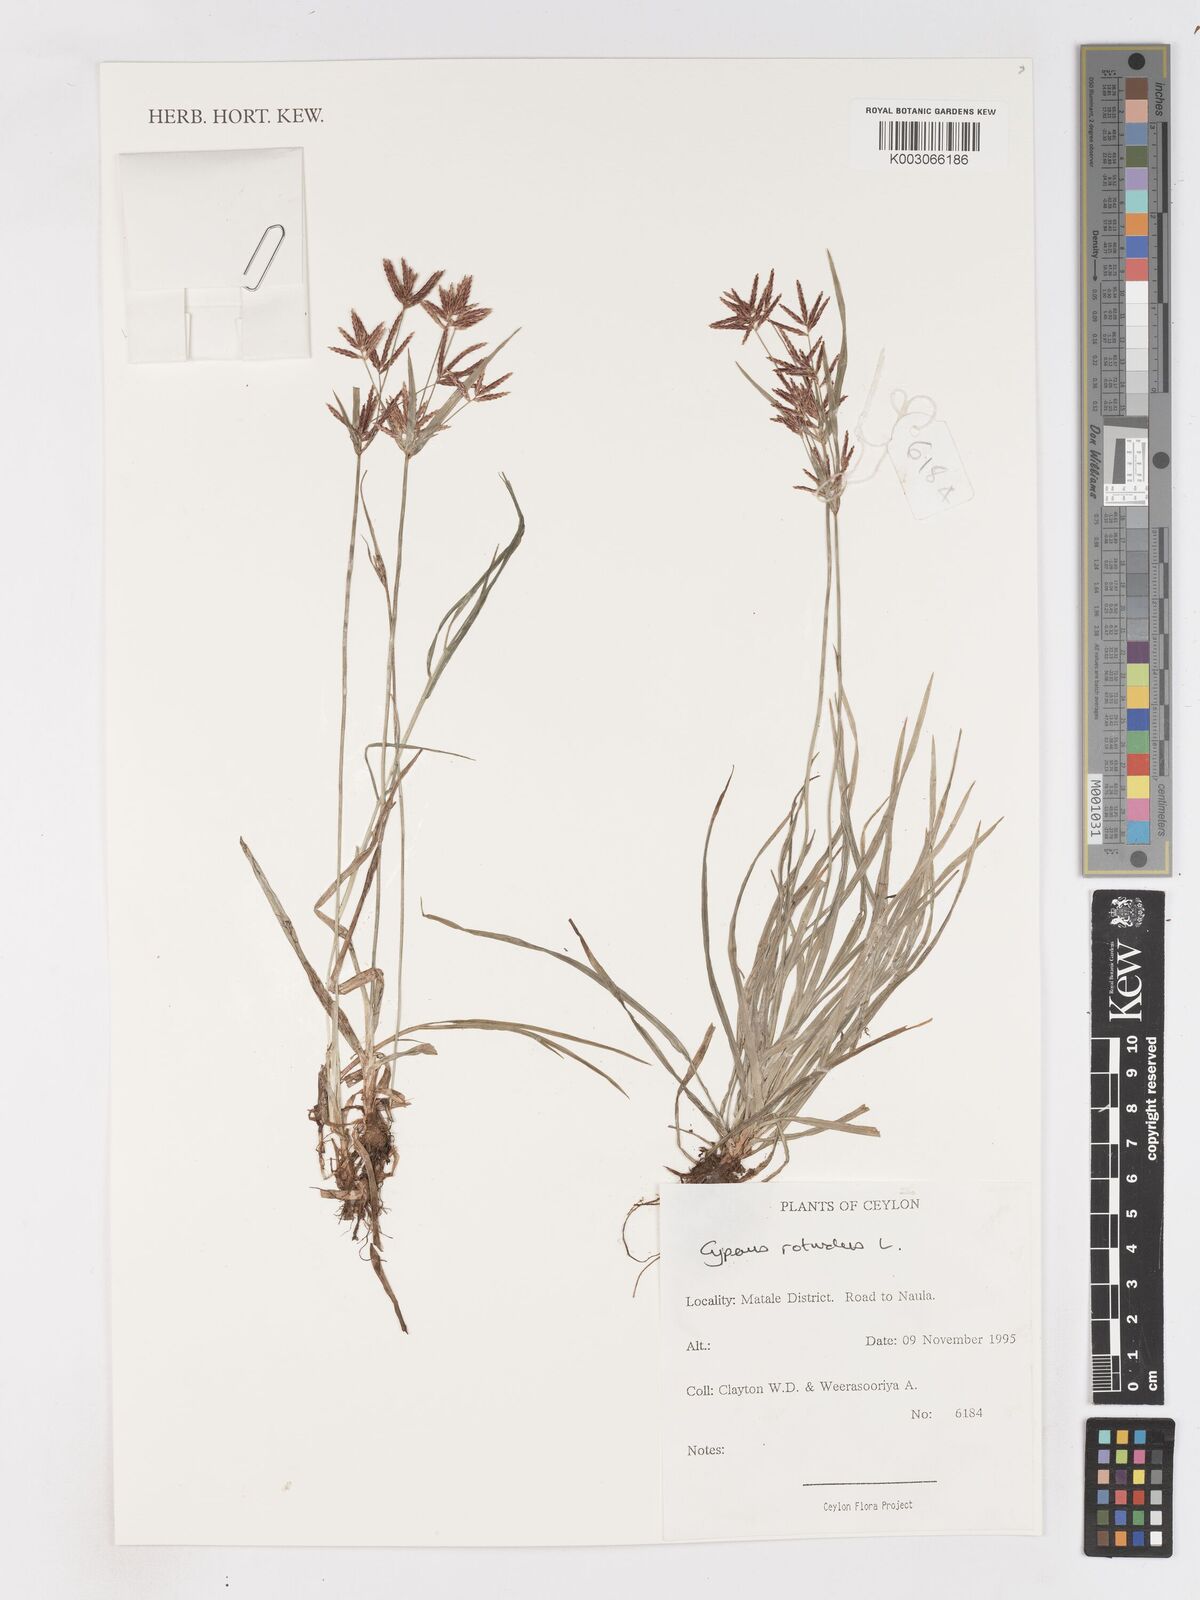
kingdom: Plantae
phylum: Tracheophyta
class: Liliopsida
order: Poales
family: Cyperaceae
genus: Cyperus
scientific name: Cyperus rotundus
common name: Nutgrass
